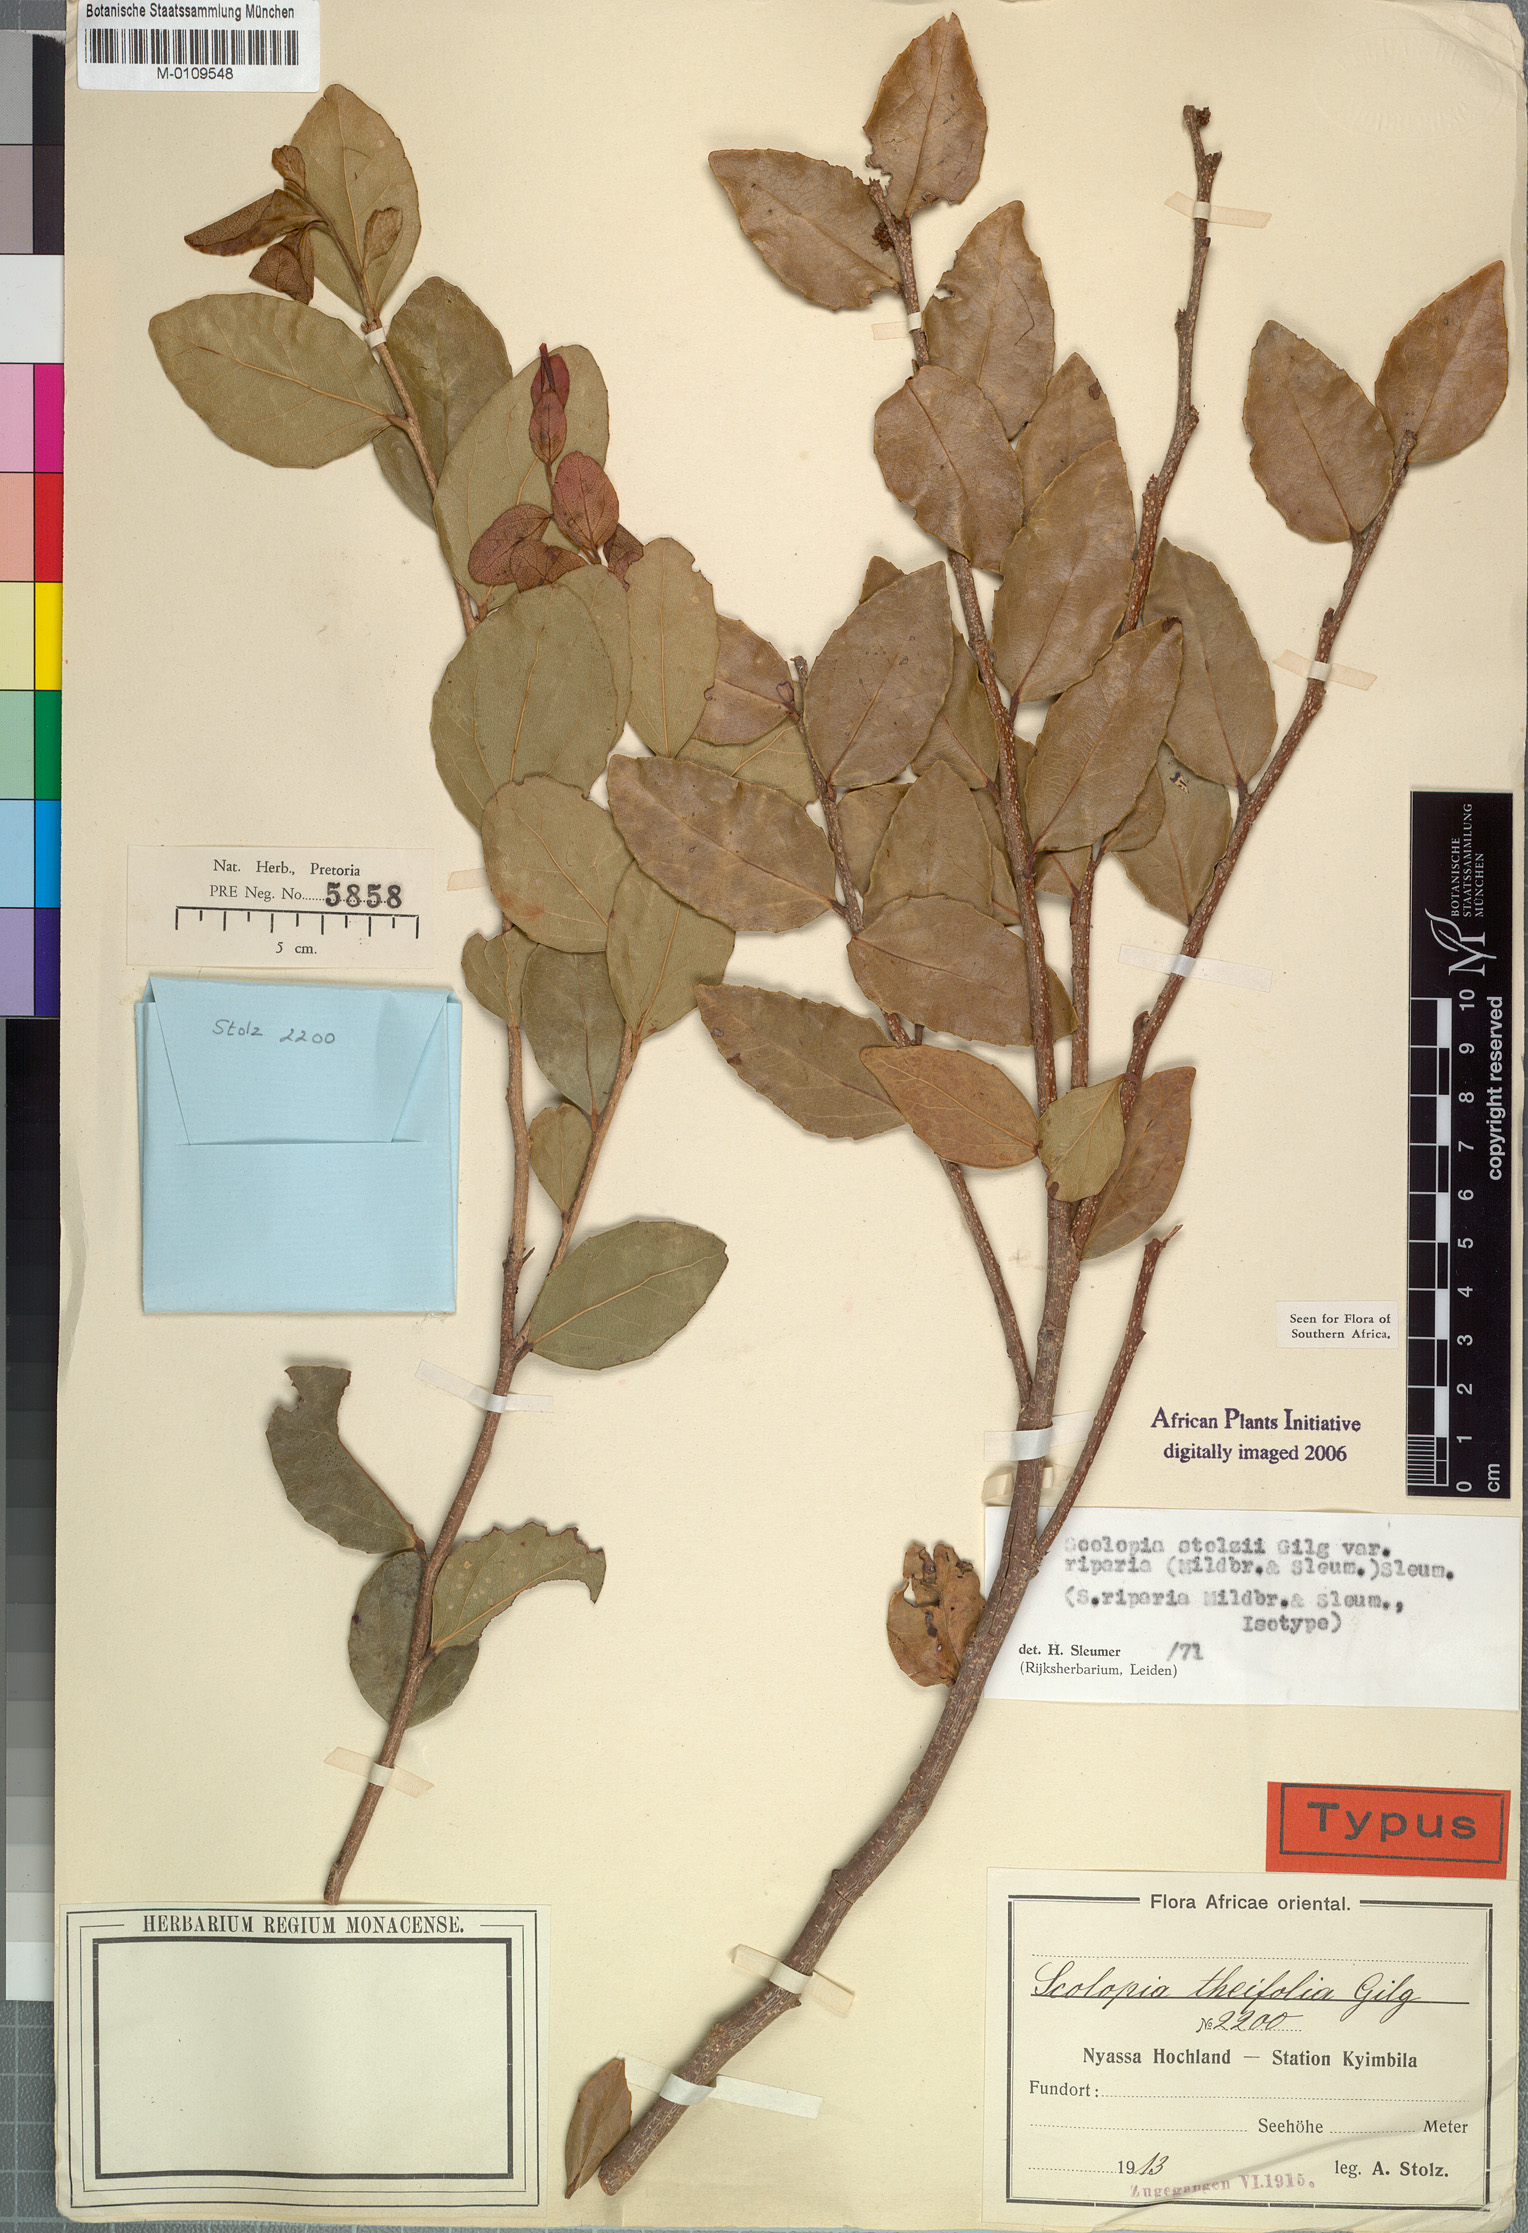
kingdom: Plantae
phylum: Tracheophyta
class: Magnoliopsida
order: Malpighiales
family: Salicaceae
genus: Scolopia
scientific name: Scolopia stolzii
